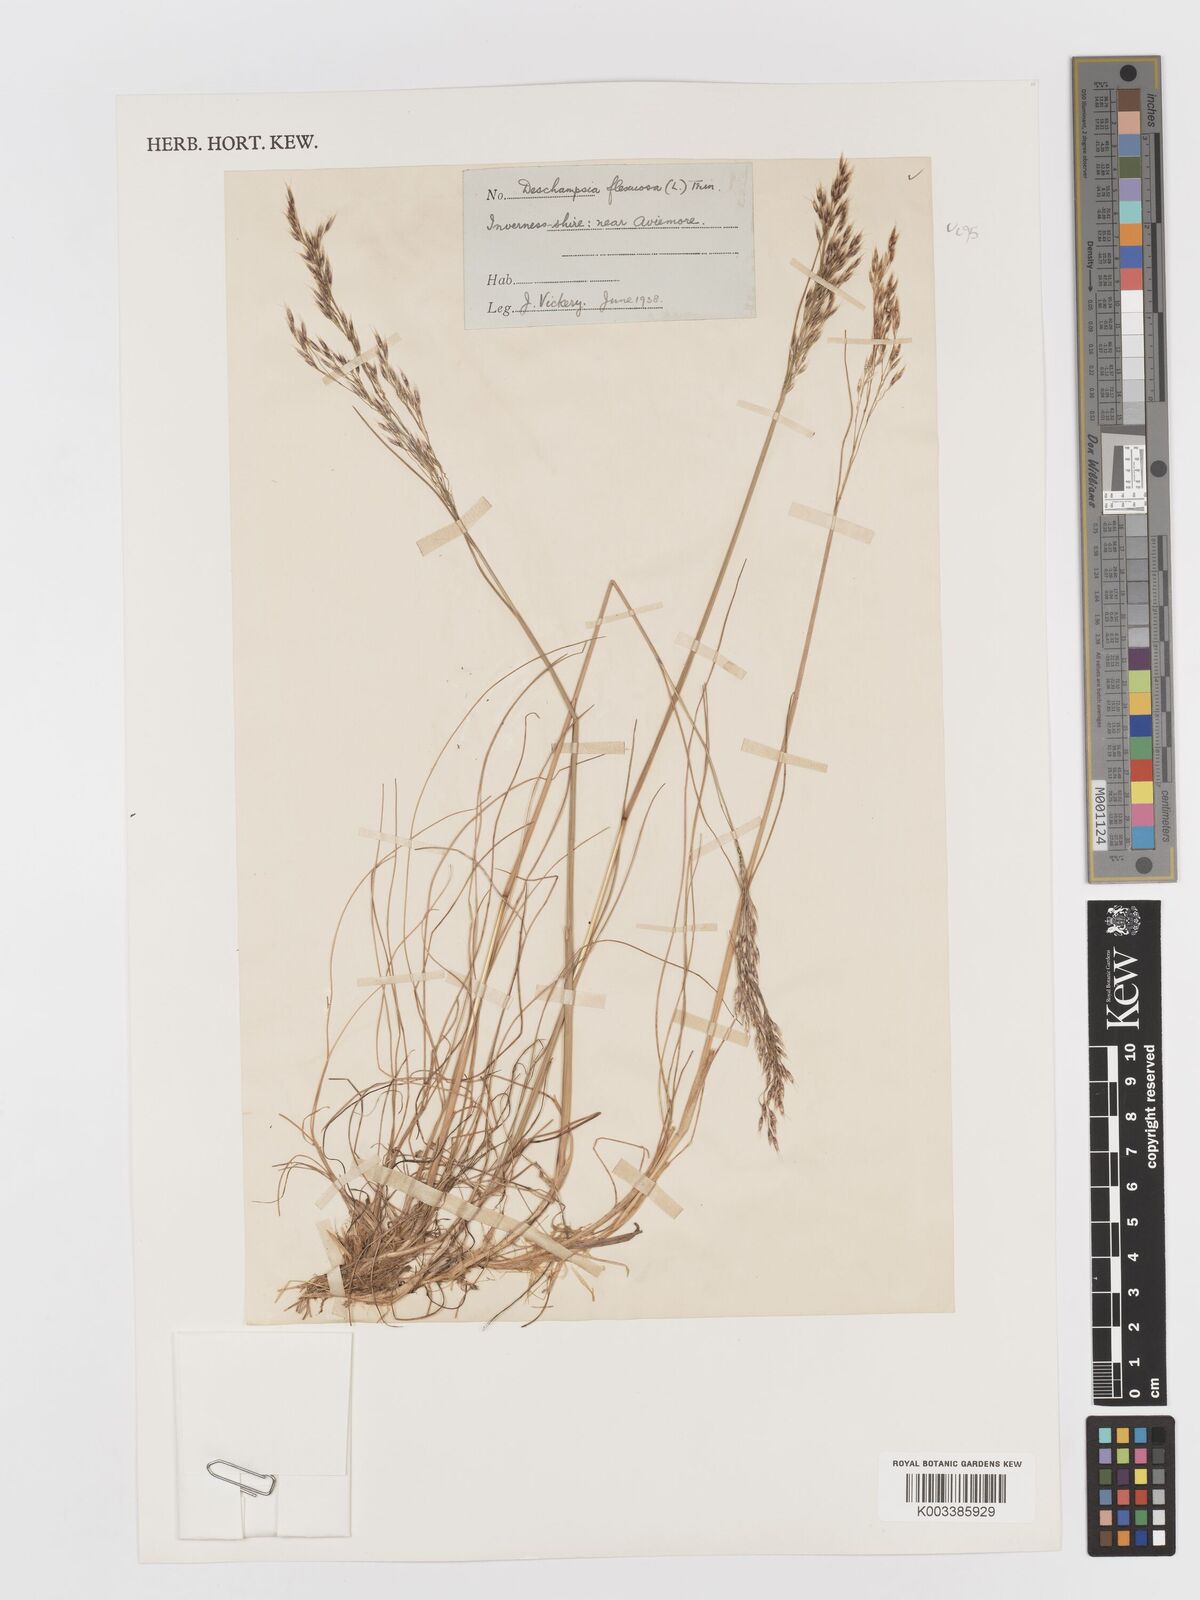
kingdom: Plantae
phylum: Tracheophyta
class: Liliopsida
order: Poales
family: Poaceae
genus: Avenella
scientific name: Avenella flexuosa
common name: Wavy hairgrass
